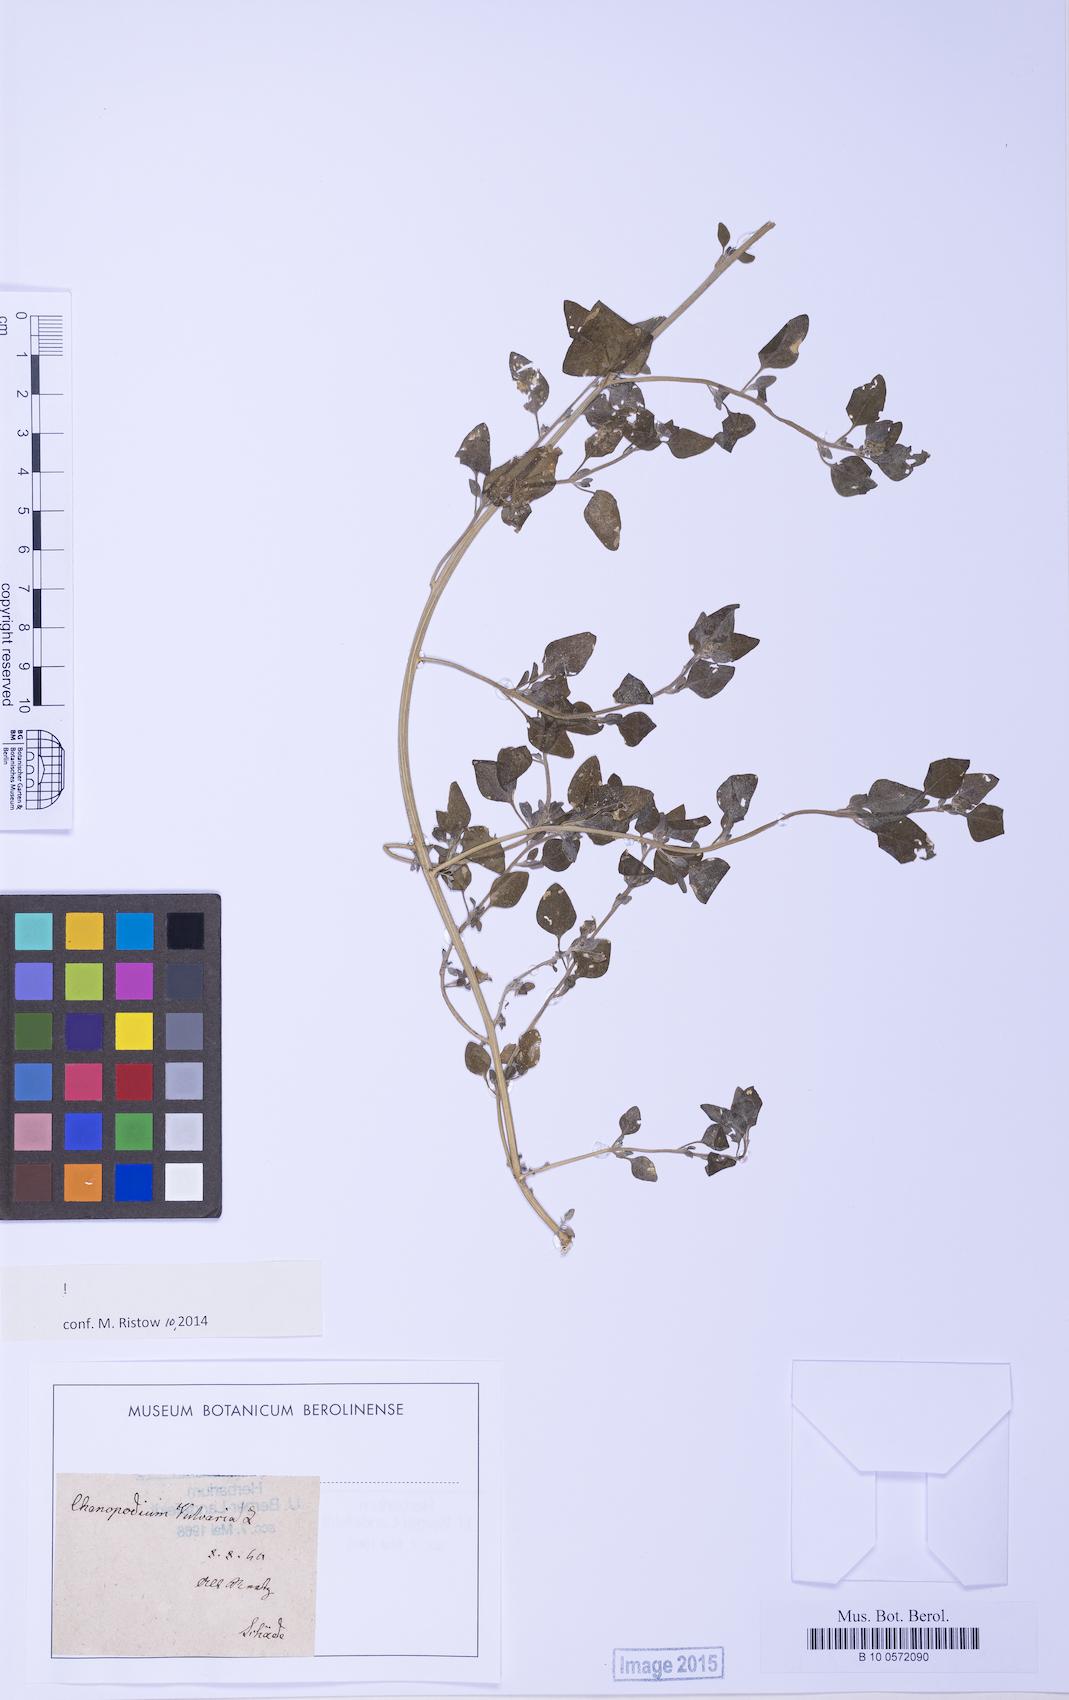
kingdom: Plantae
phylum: Tracheophyta
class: Magnoliopsida
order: Caryophyllales
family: Amaranthaceae
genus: Chenopodium
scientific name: Chenopodium vulvaria
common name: Stinking goosefoot
